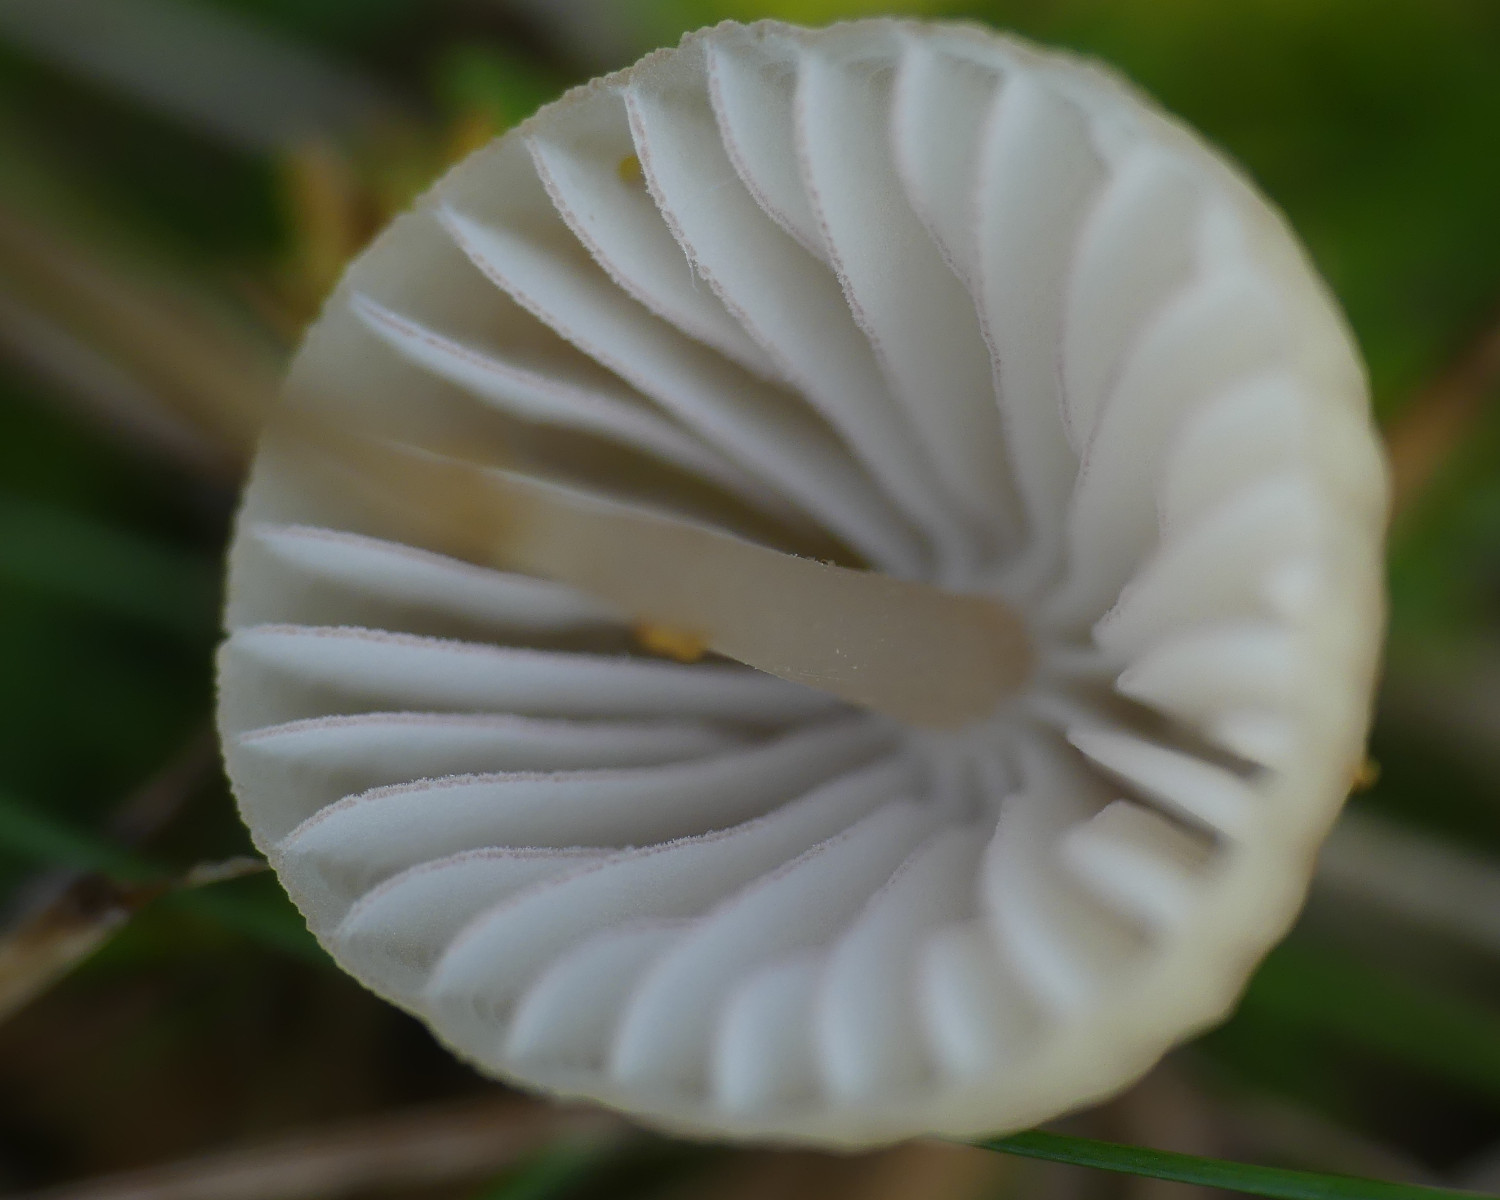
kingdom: Fungi
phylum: Basidiomycota
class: Agaricomycetes
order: Agaricales
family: Mycenaceae
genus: Mycena
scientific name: Mycena olivaceomarginata
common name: brunægget huesvamp
